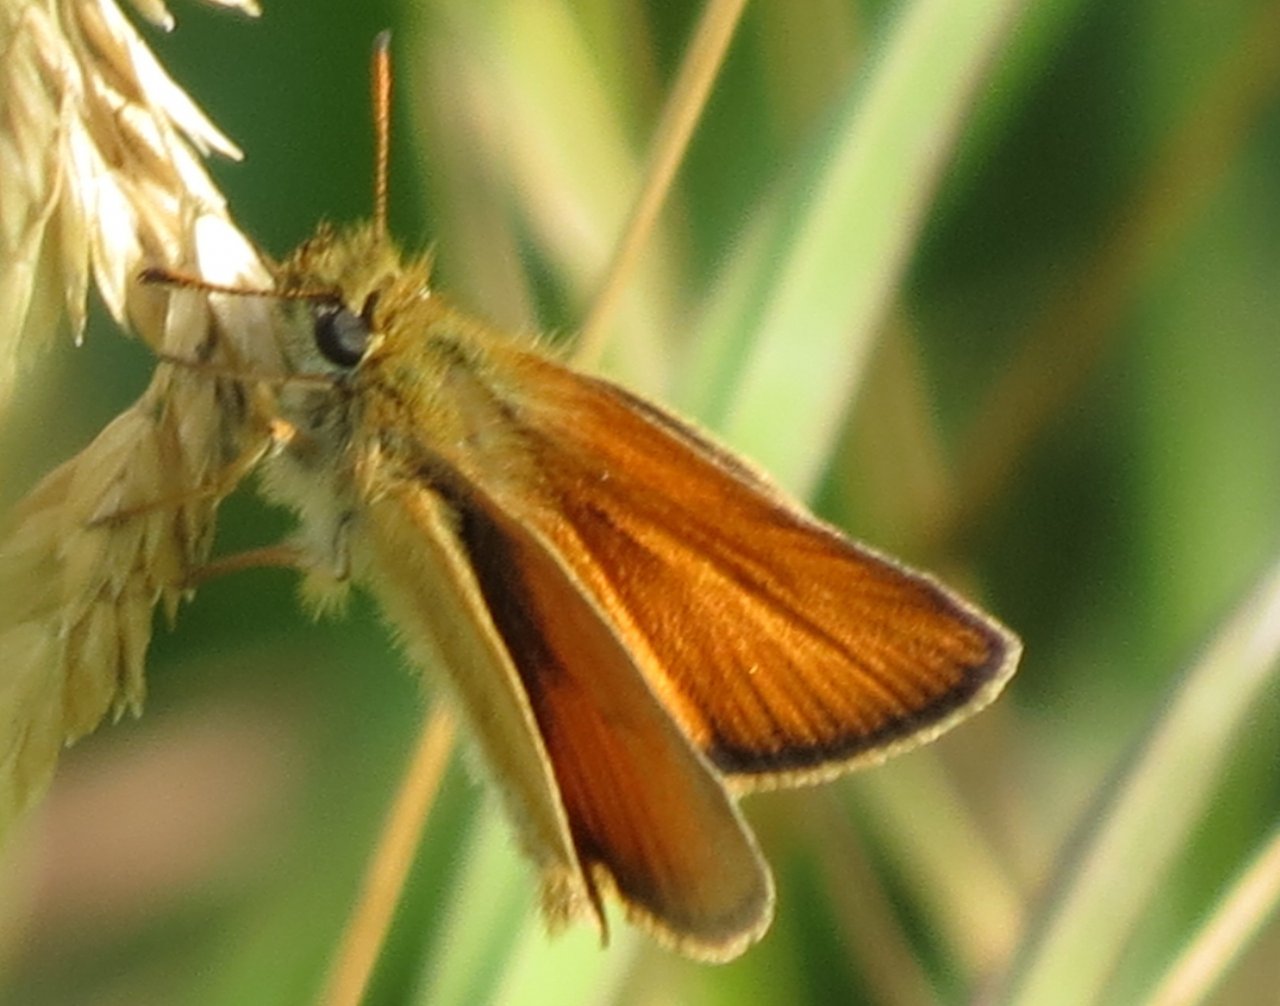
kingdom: Animalia
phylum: Arthropoda
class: Insecta
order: Lepidoptera
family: Hesperiidae
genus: Thymelicus
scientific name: Thymelicus lineola
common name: European Skipper
